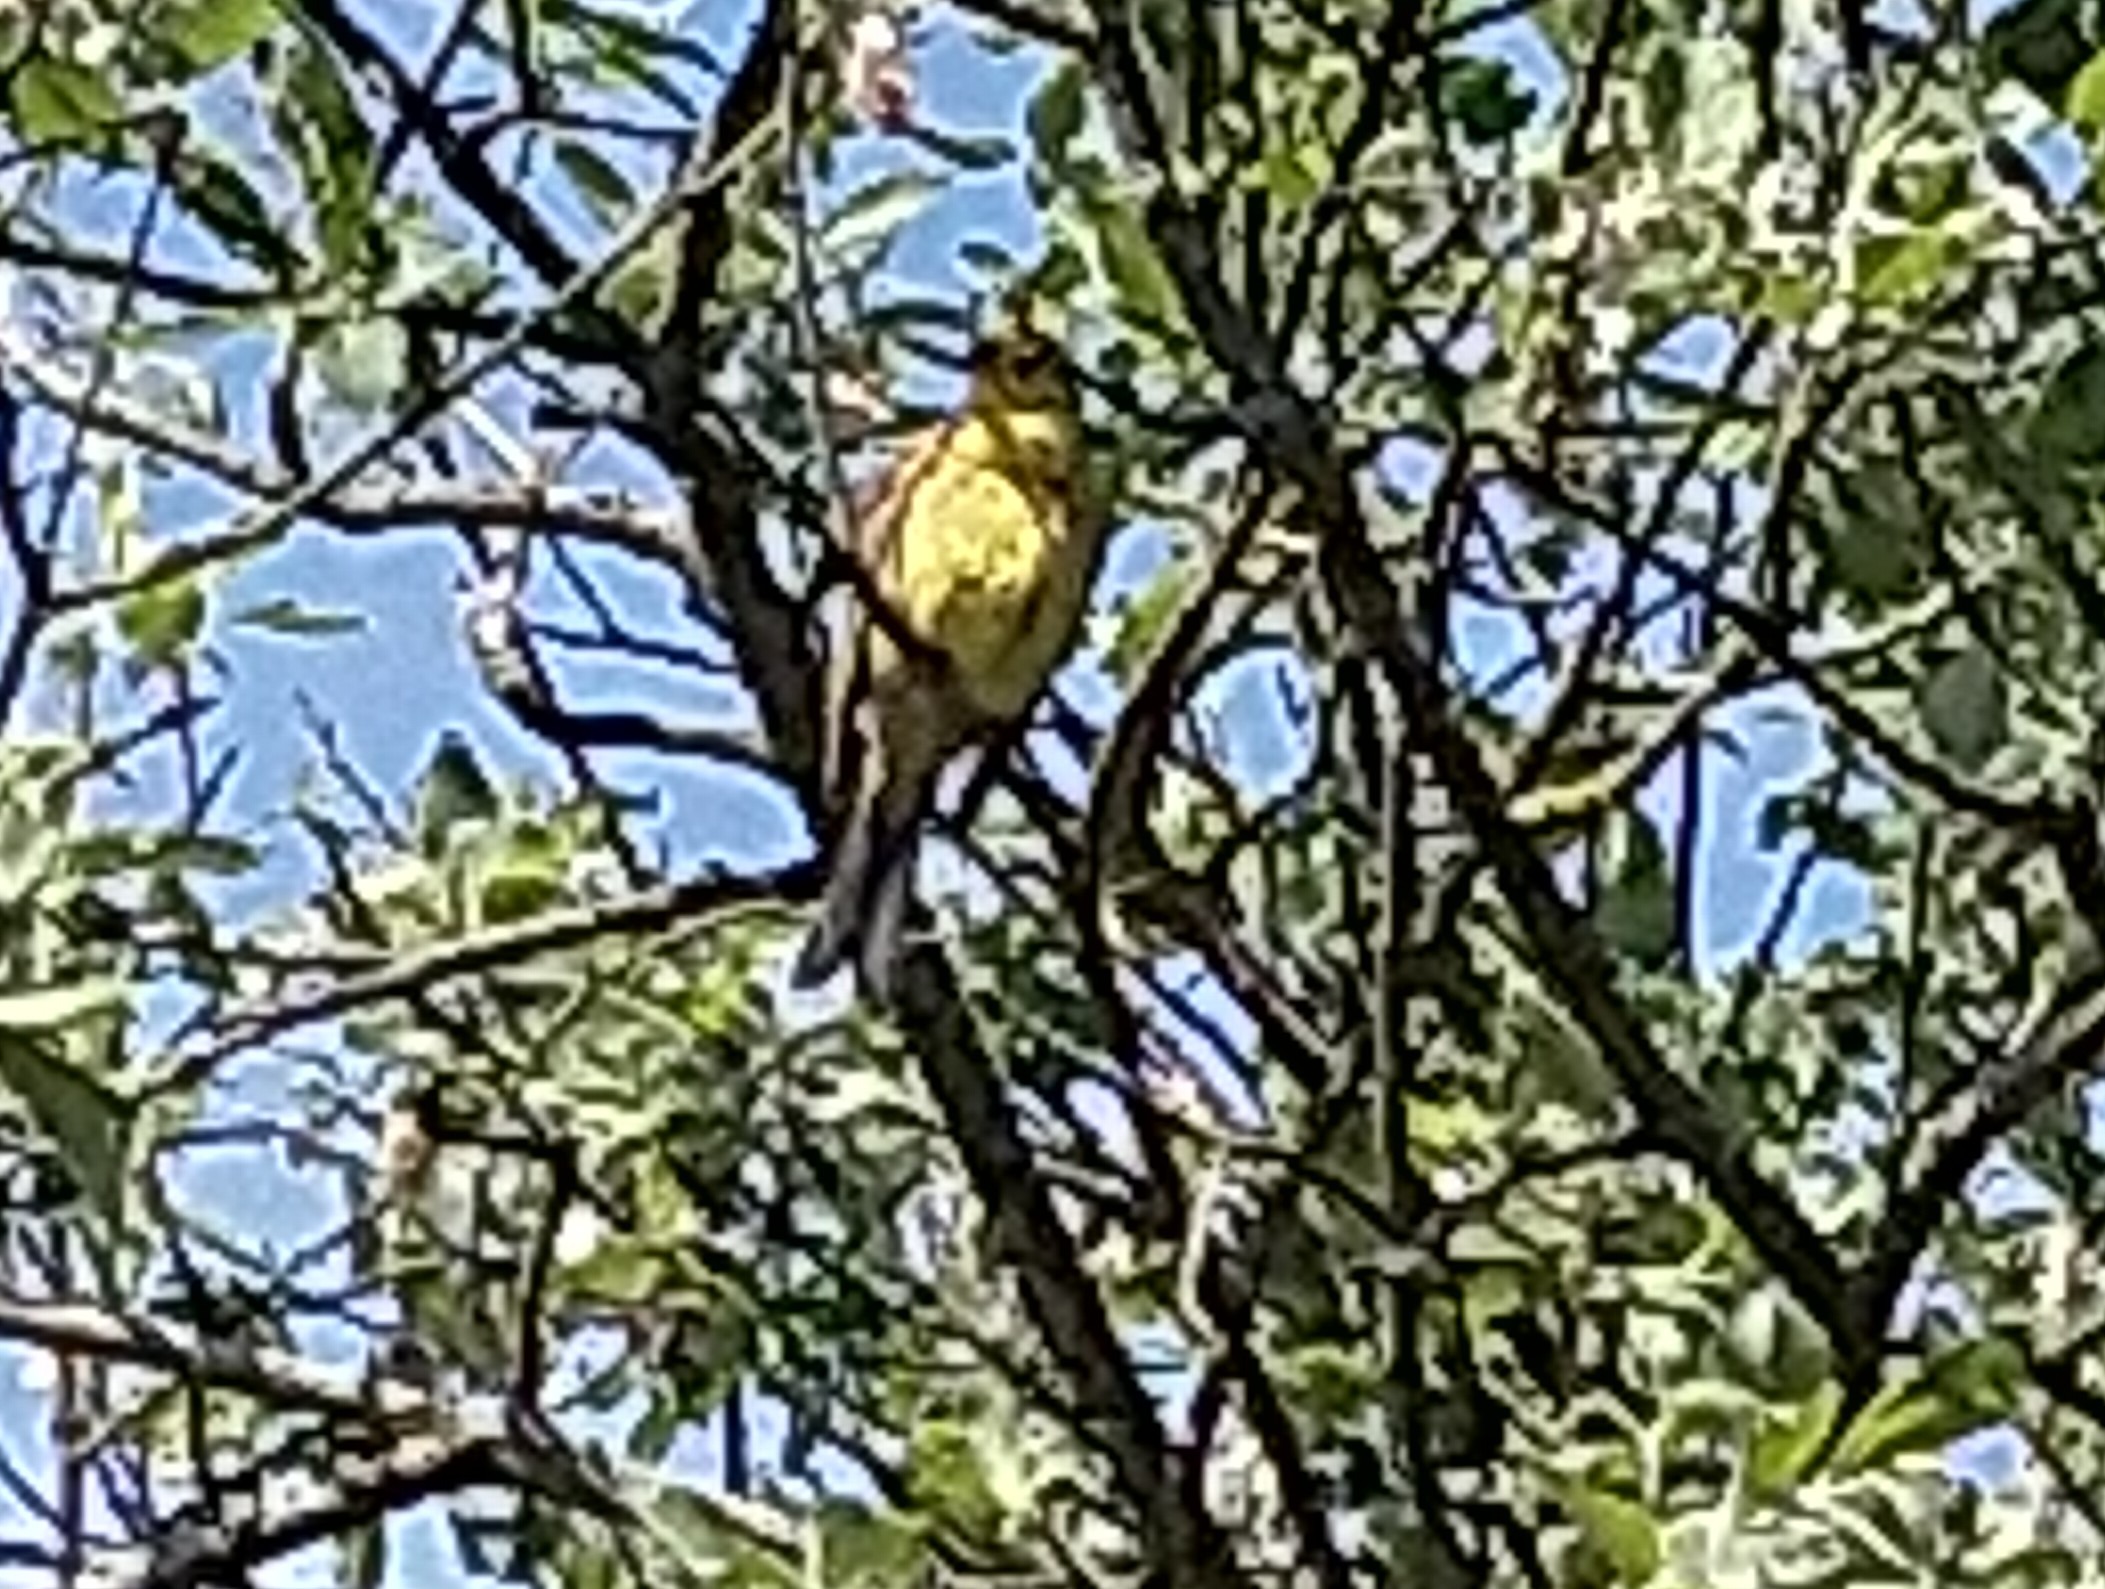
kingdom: Animalia
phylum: Chordata
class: Aves
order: Passeriformes
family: Acrocephalidae
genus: Hippolais
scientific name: Hippolais icterina
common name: Gulbug
